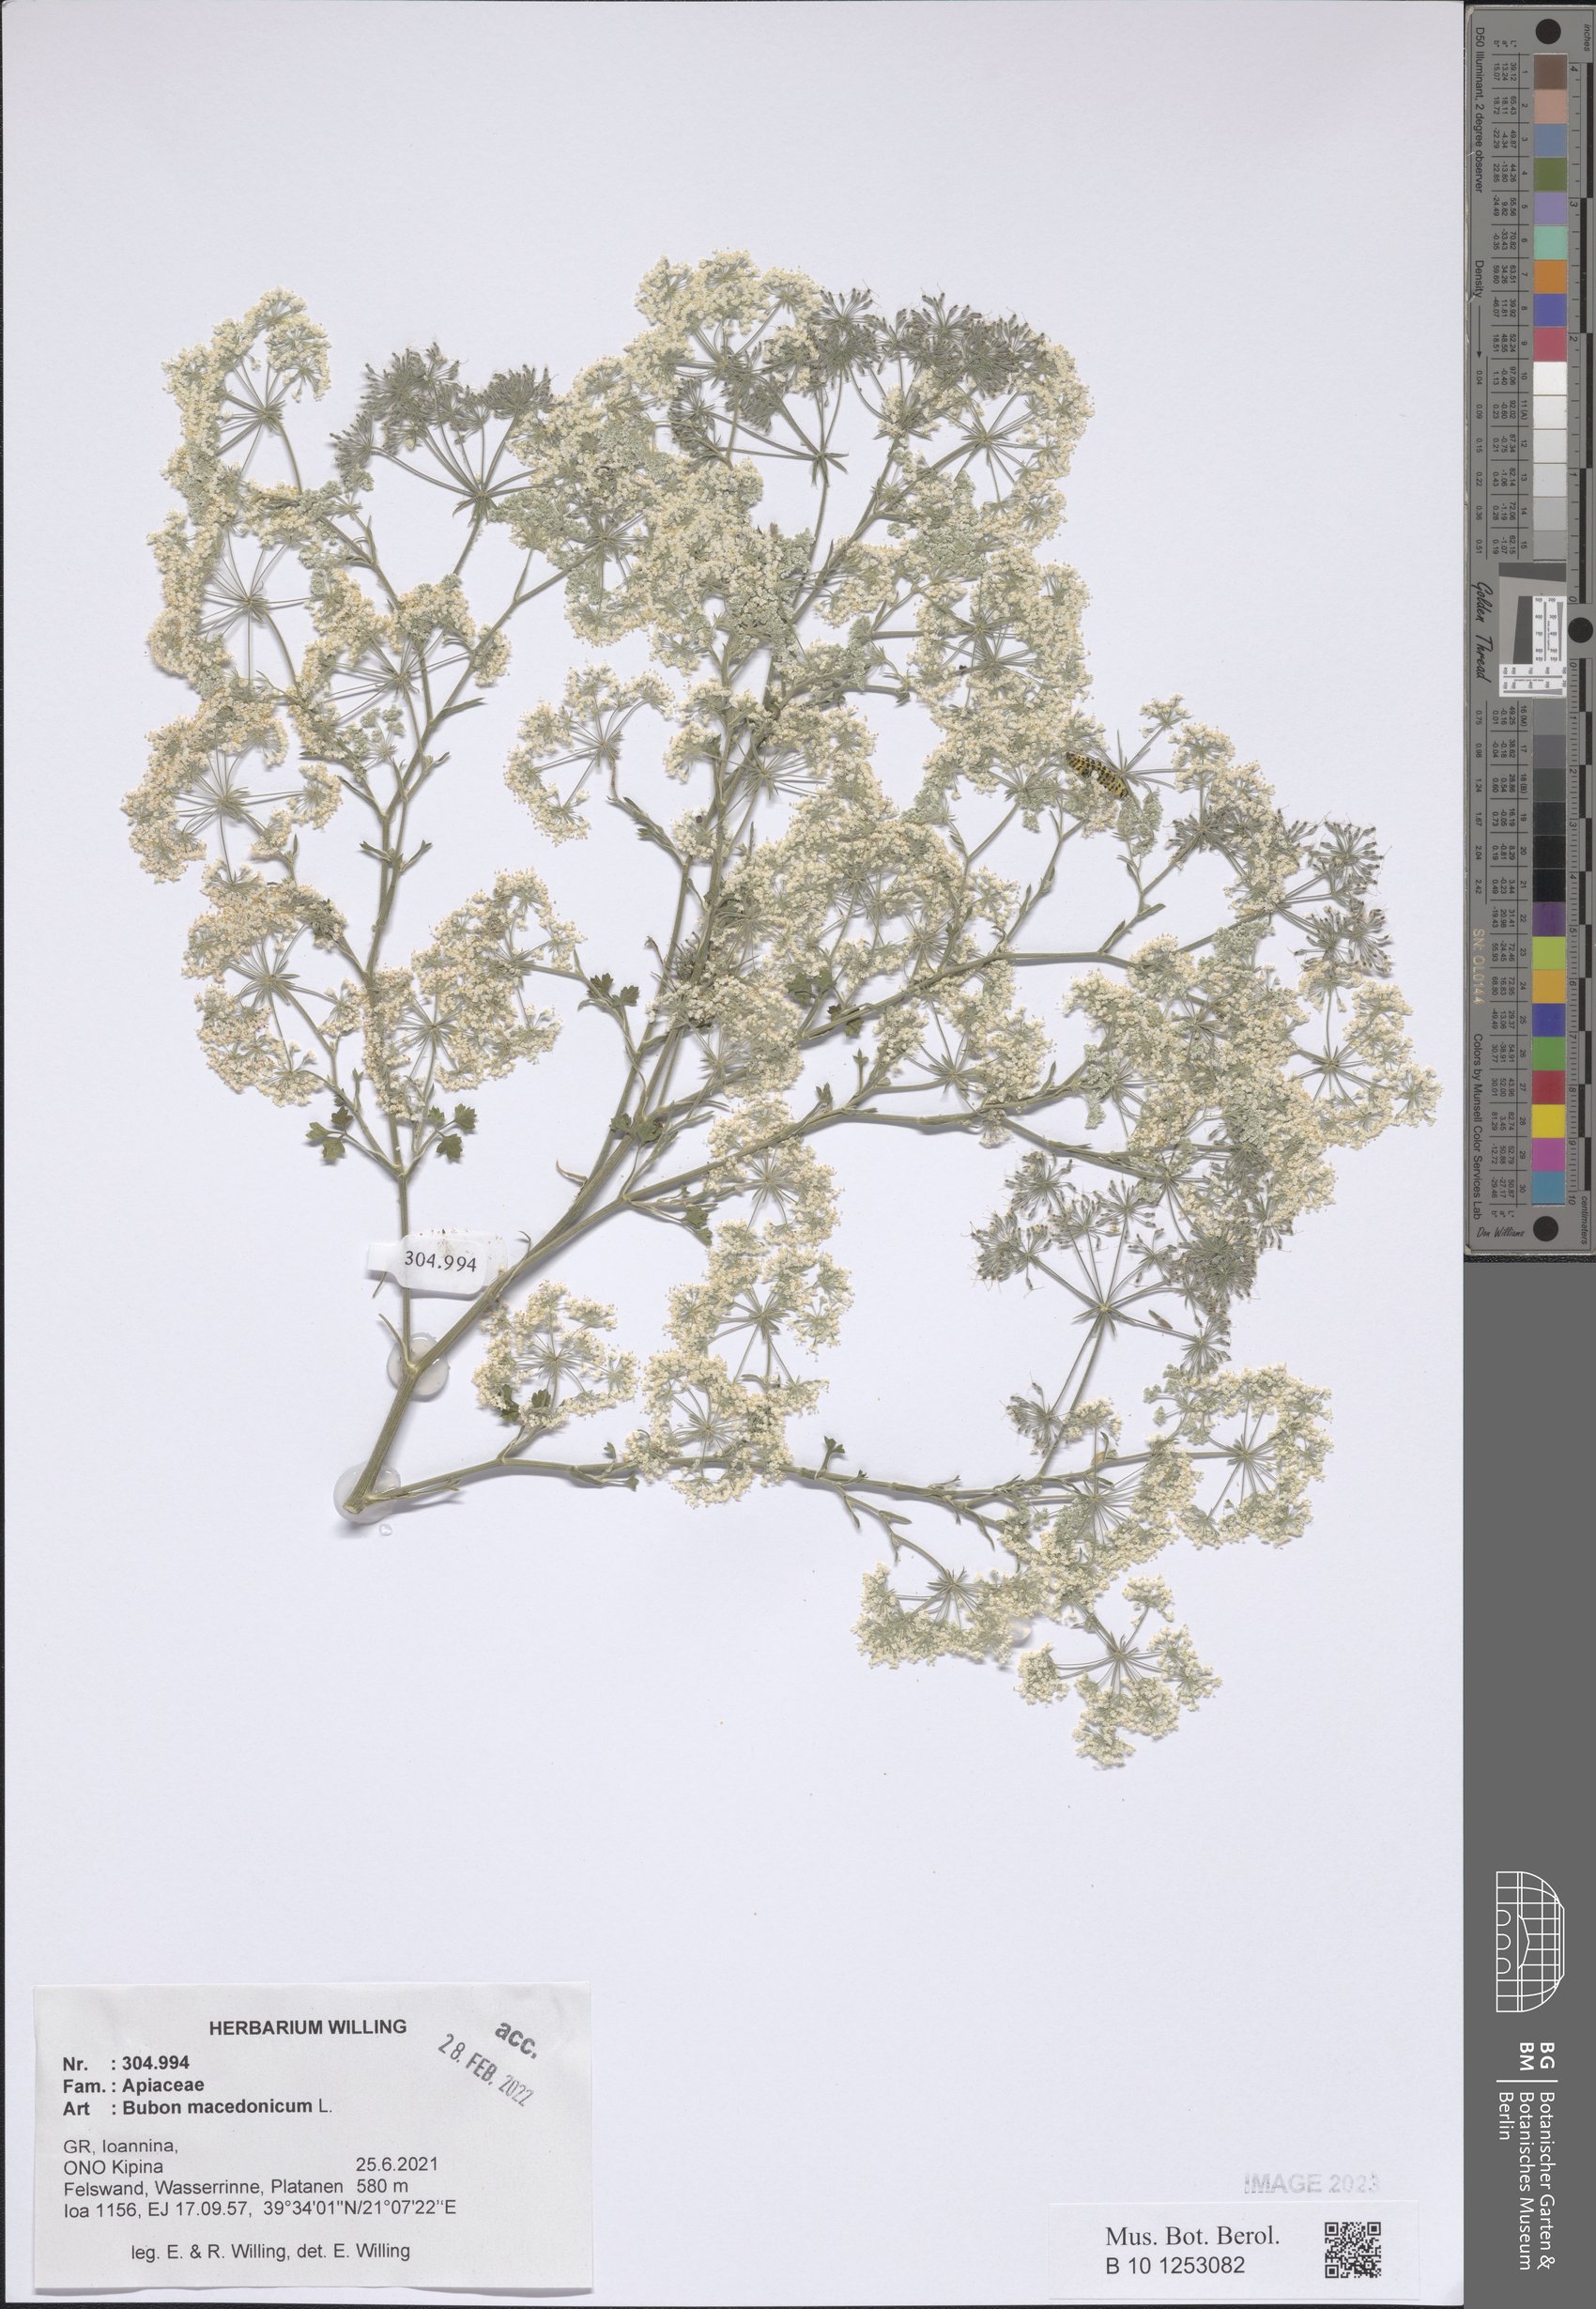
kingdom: Plantae
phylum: Tracheophyta
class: Magnoliopsida
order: Apiales
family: Apiaceae
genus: Bubon
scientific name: Bubon macedonicum
